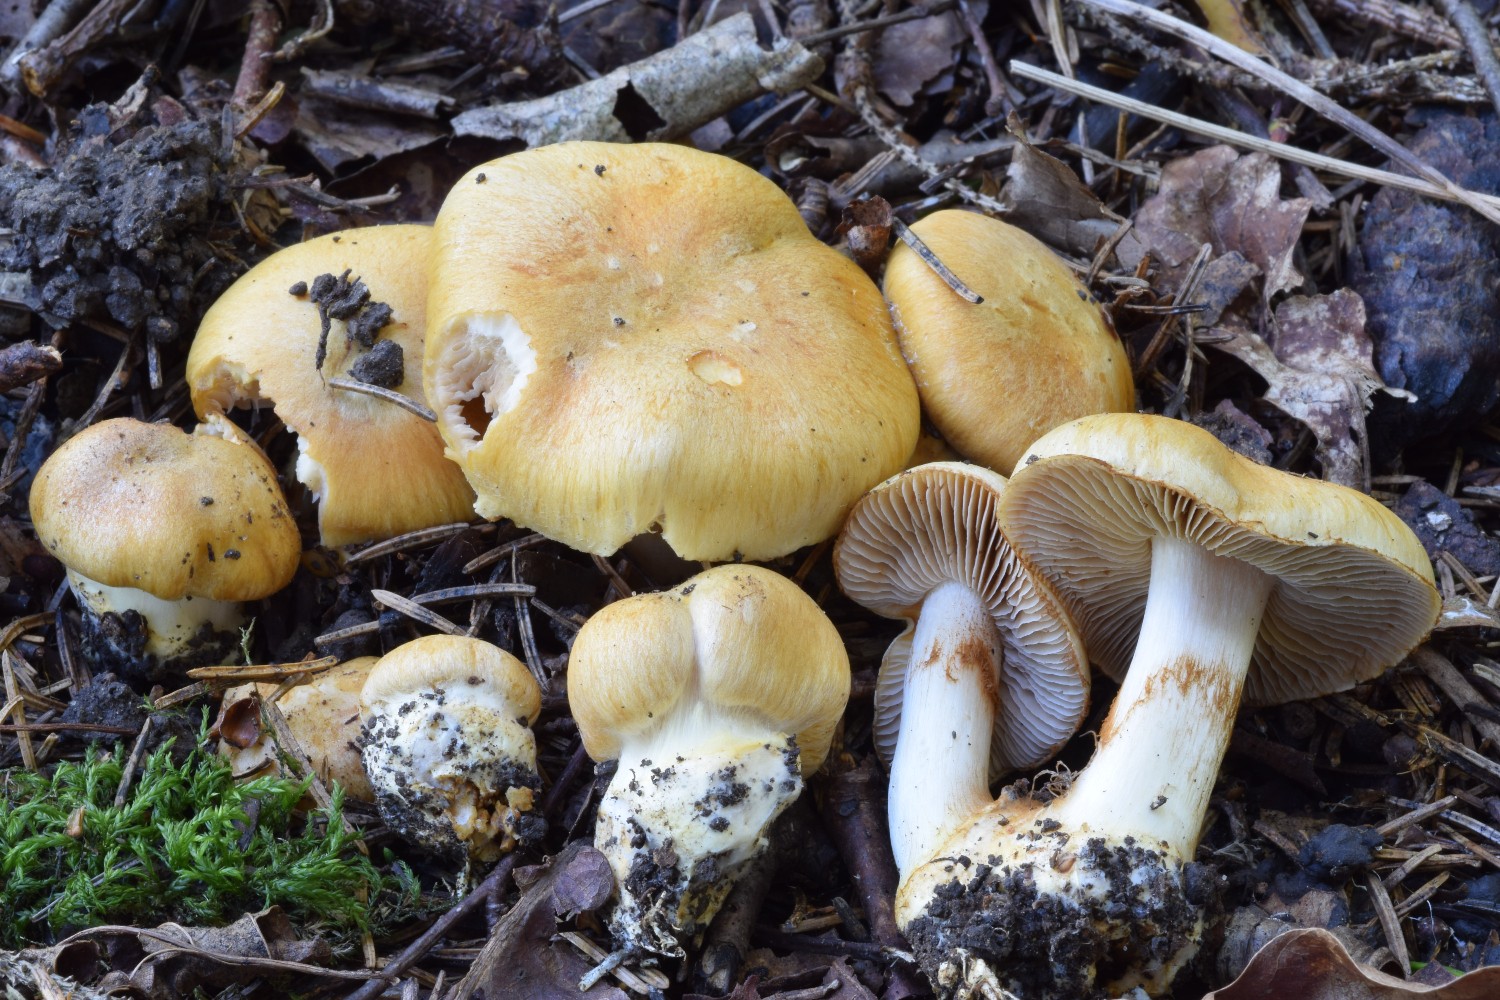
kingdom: Fungi
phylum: Basidiomycota
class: Agaricomycetes
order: Agaricales
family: Cortinariaceae
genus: Phlegmacium
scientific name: Phlegmacium cruentipellis
